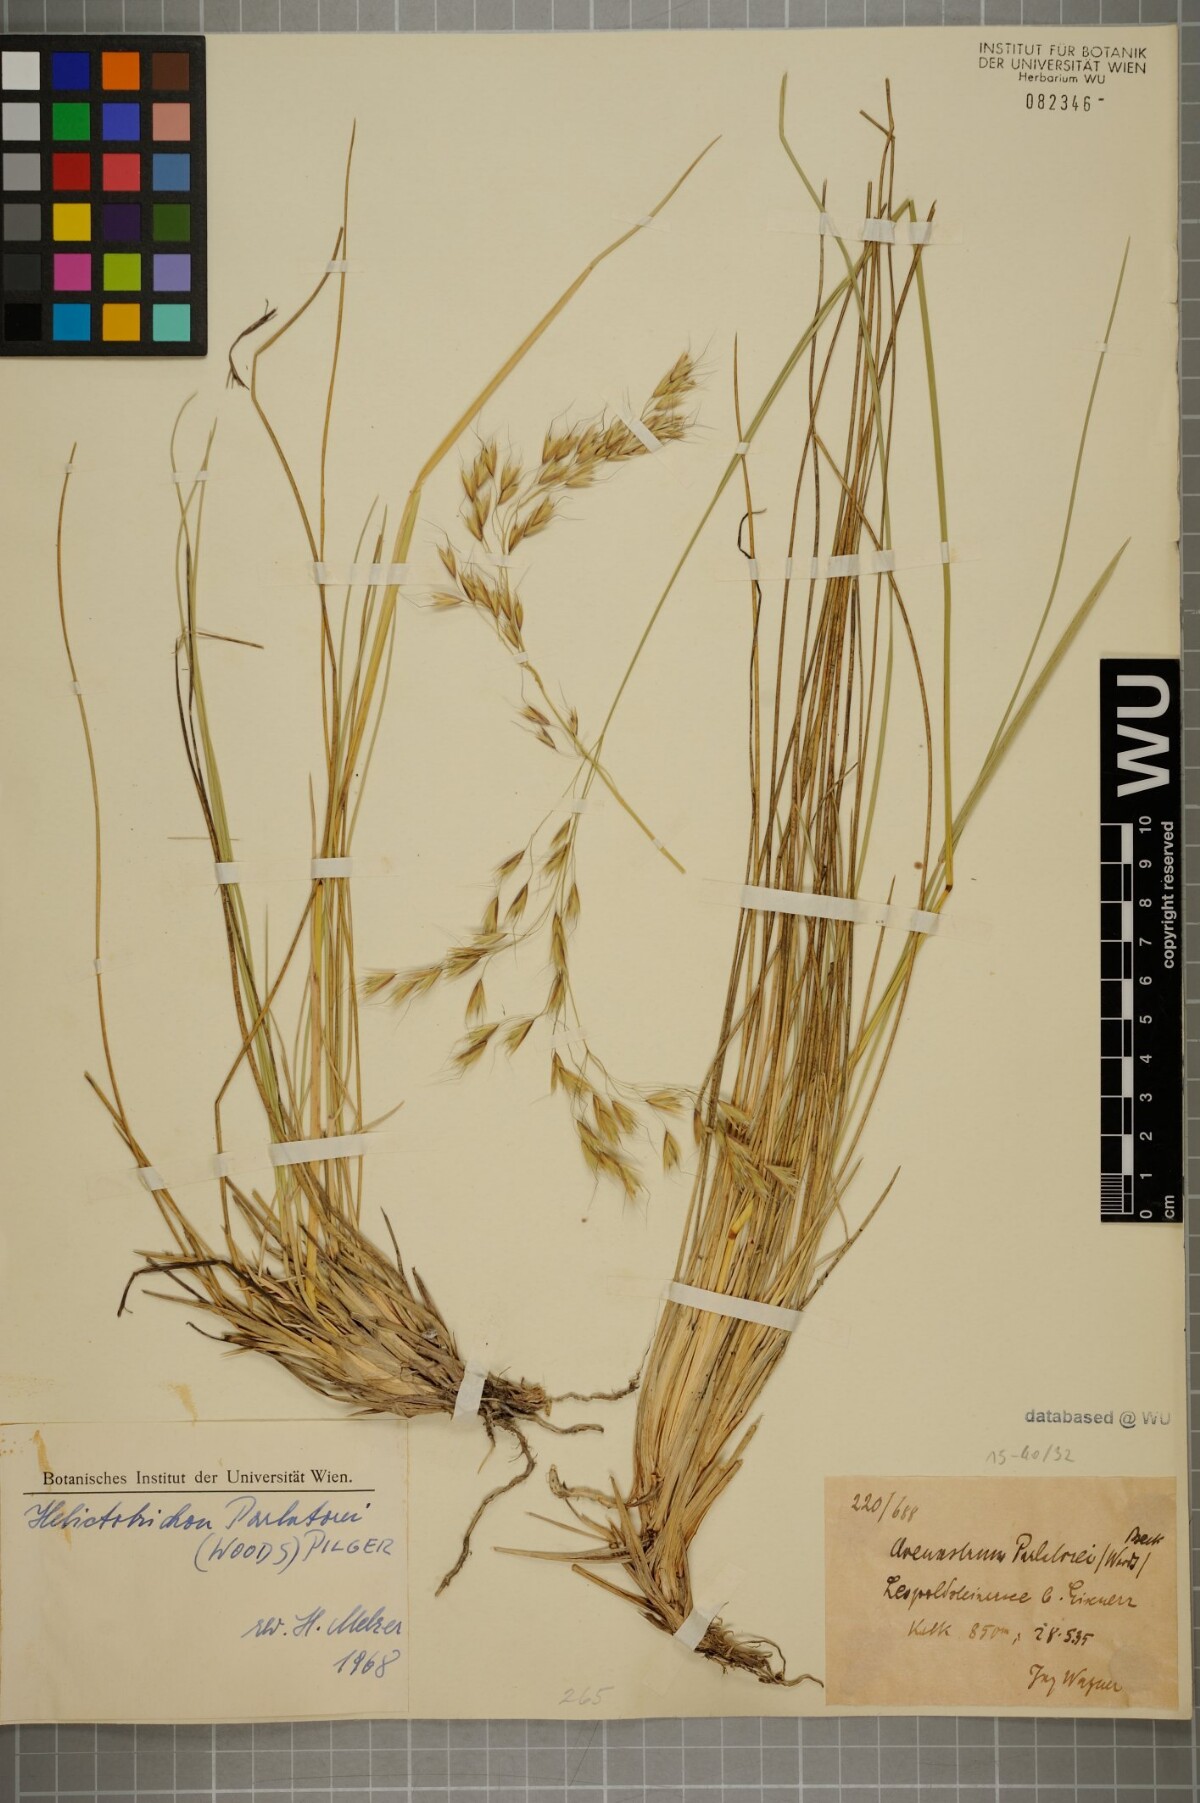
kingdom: Plantae
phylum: Tracheophyta
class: Liliopsida
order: Poales
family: Poaceae
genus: Helictotrichon
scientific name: Helictotrichon parlatorei
